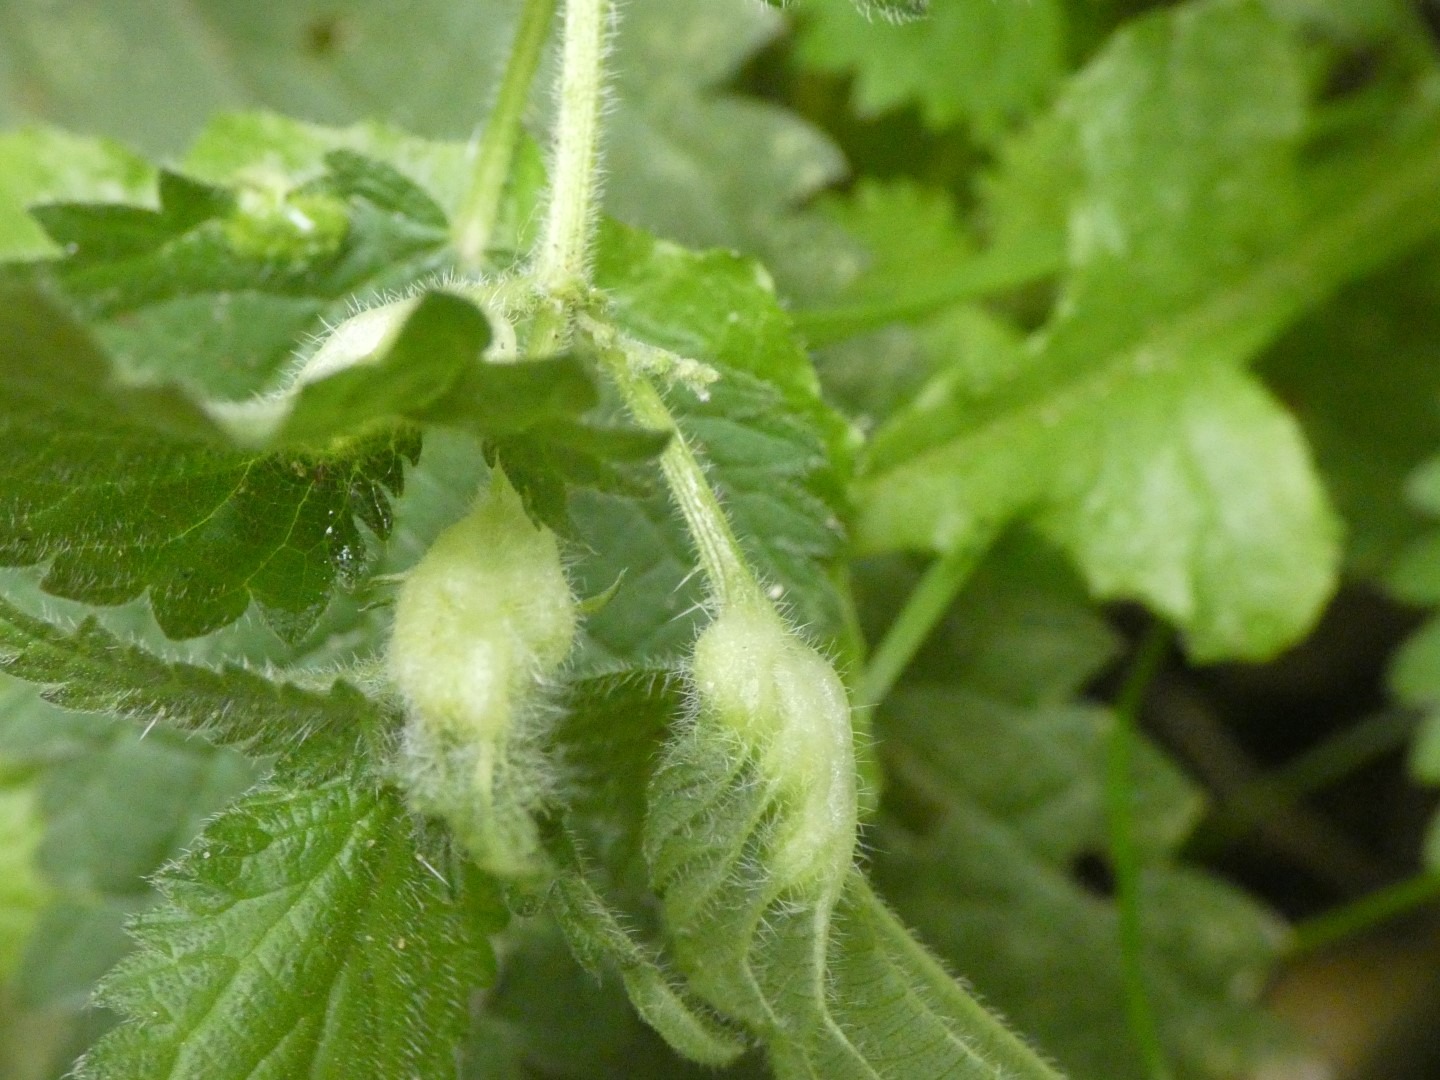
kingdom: Plantae
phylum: Tracheophyta
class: Magnoliopsida
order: Rosales
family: Urticaceae
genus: Urtica
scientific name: Urtica dioica
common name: Stor nælde
